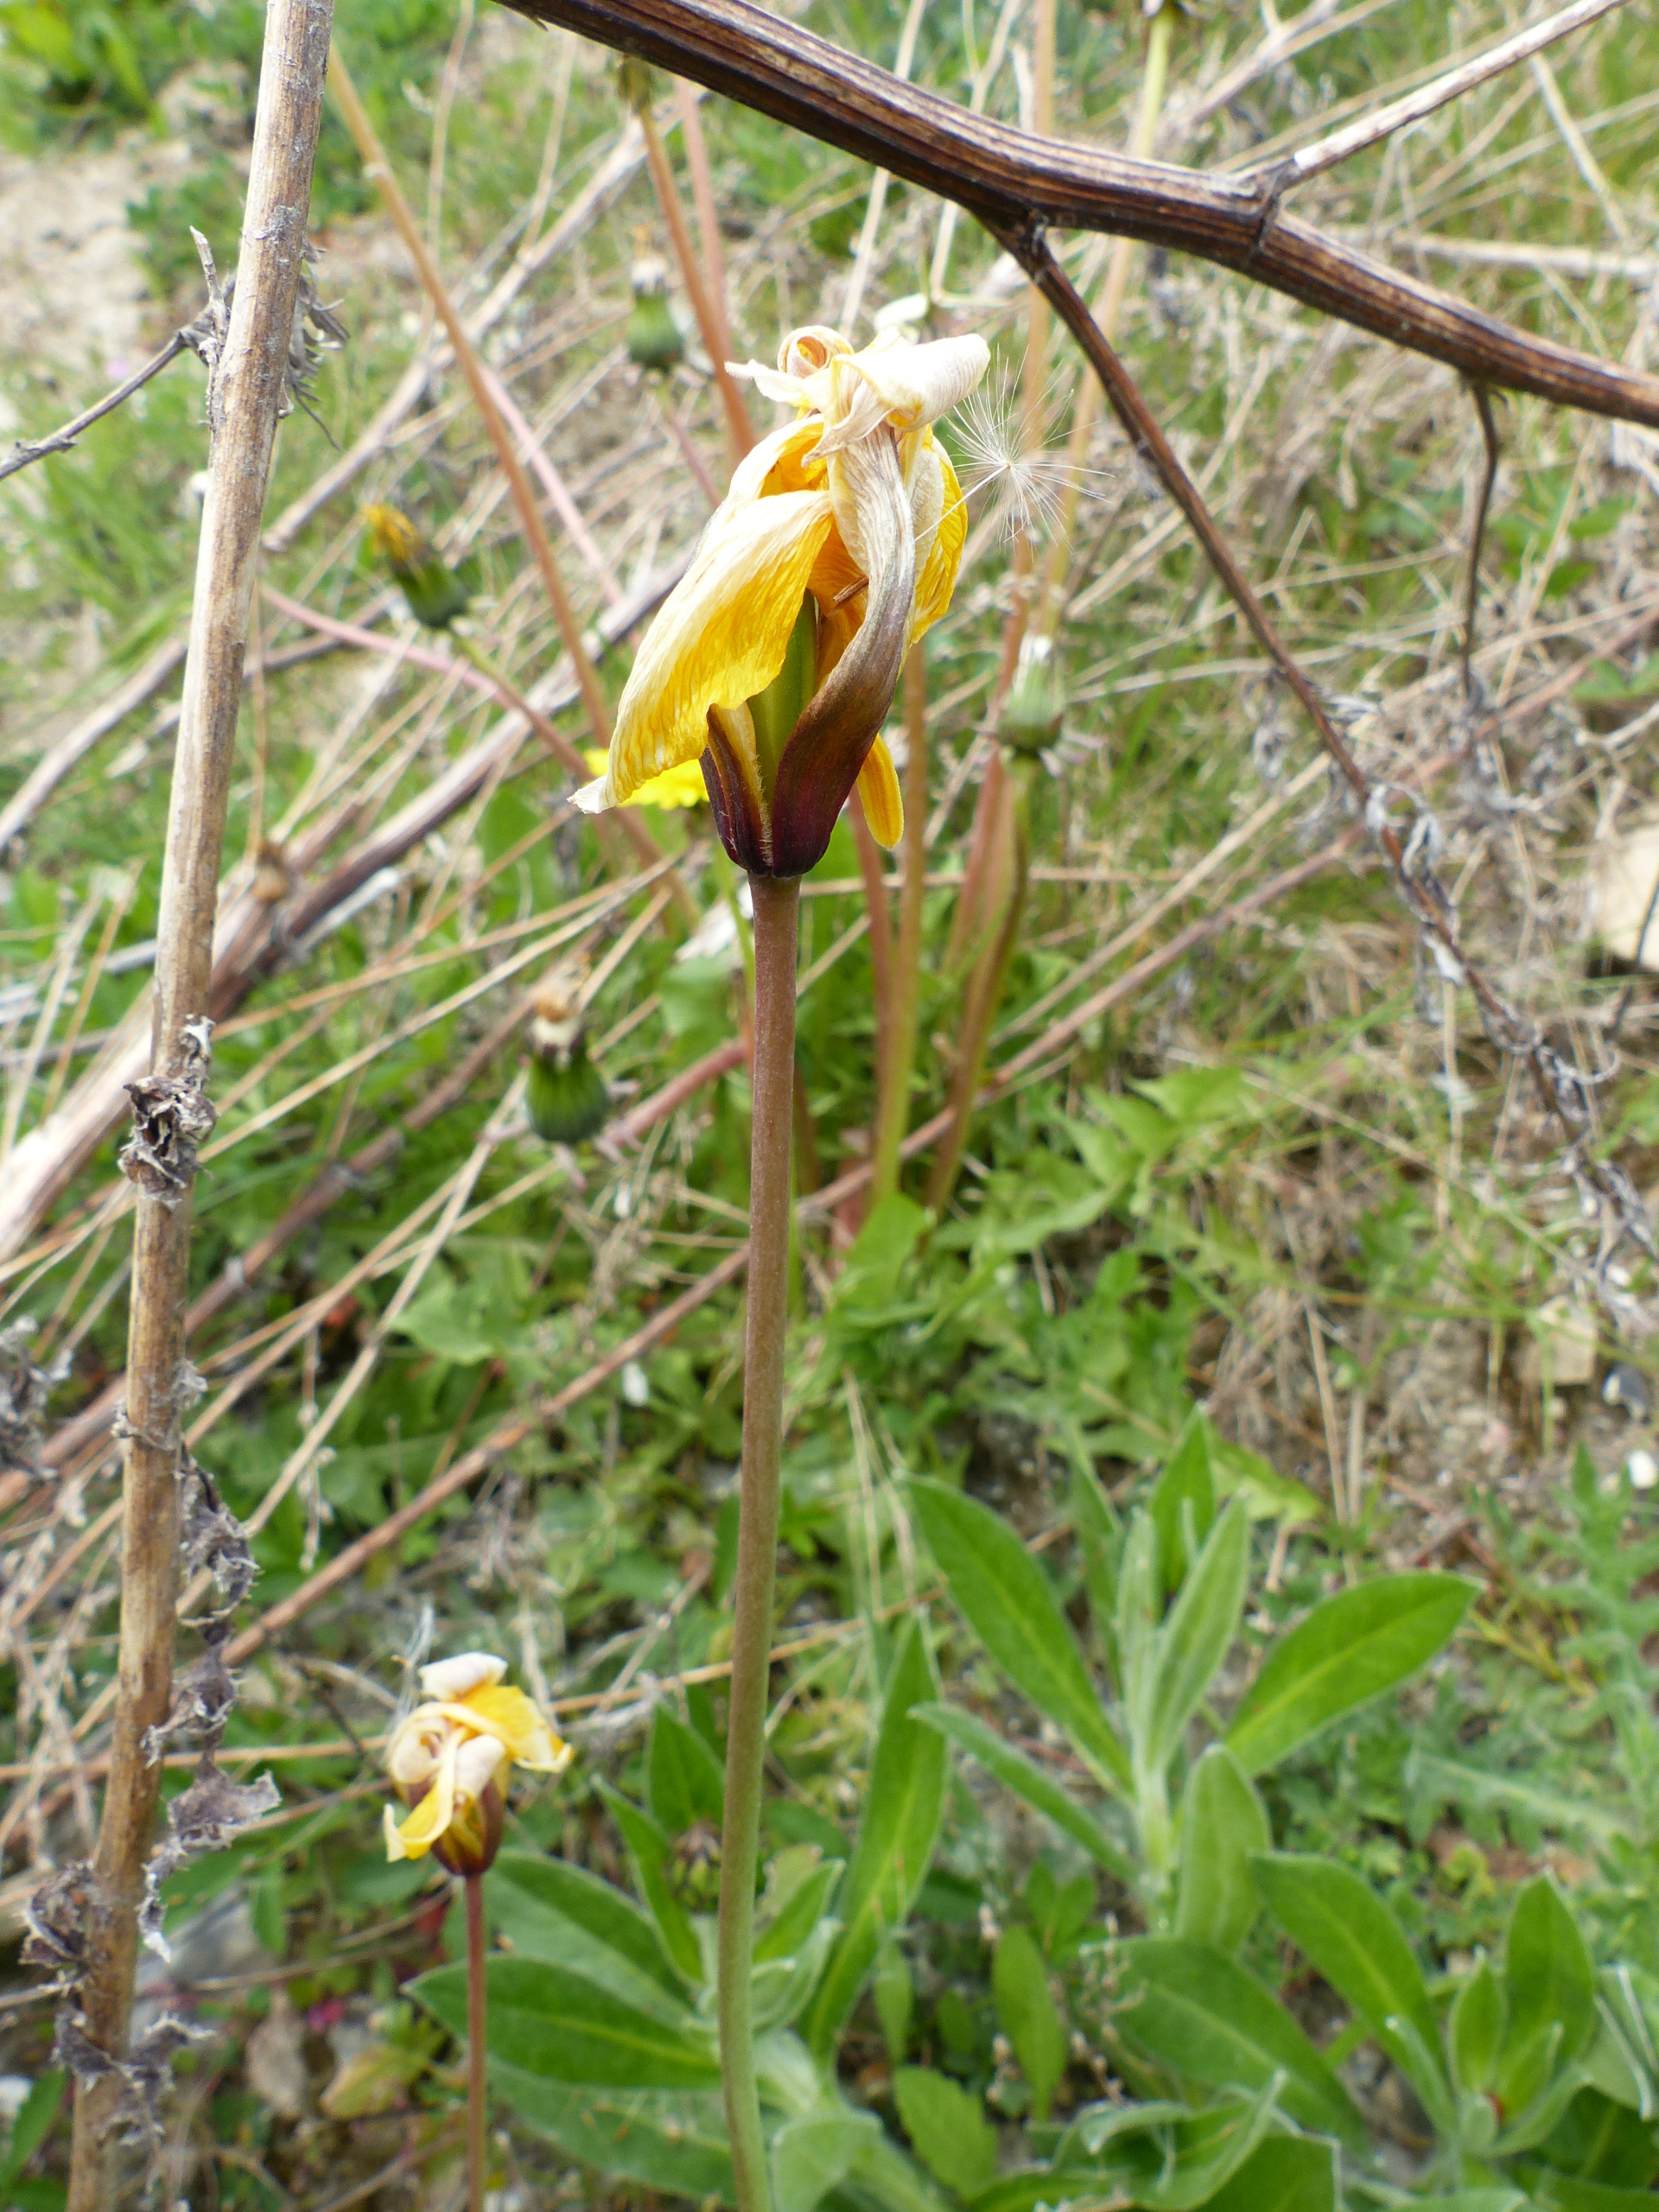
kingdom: Plantae
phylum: Tracheophyta
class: Liliopsida
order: Liliales
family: Liliaceae
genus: Tulipa
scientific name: Tulipa sylvestris
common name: Vild tulipan
